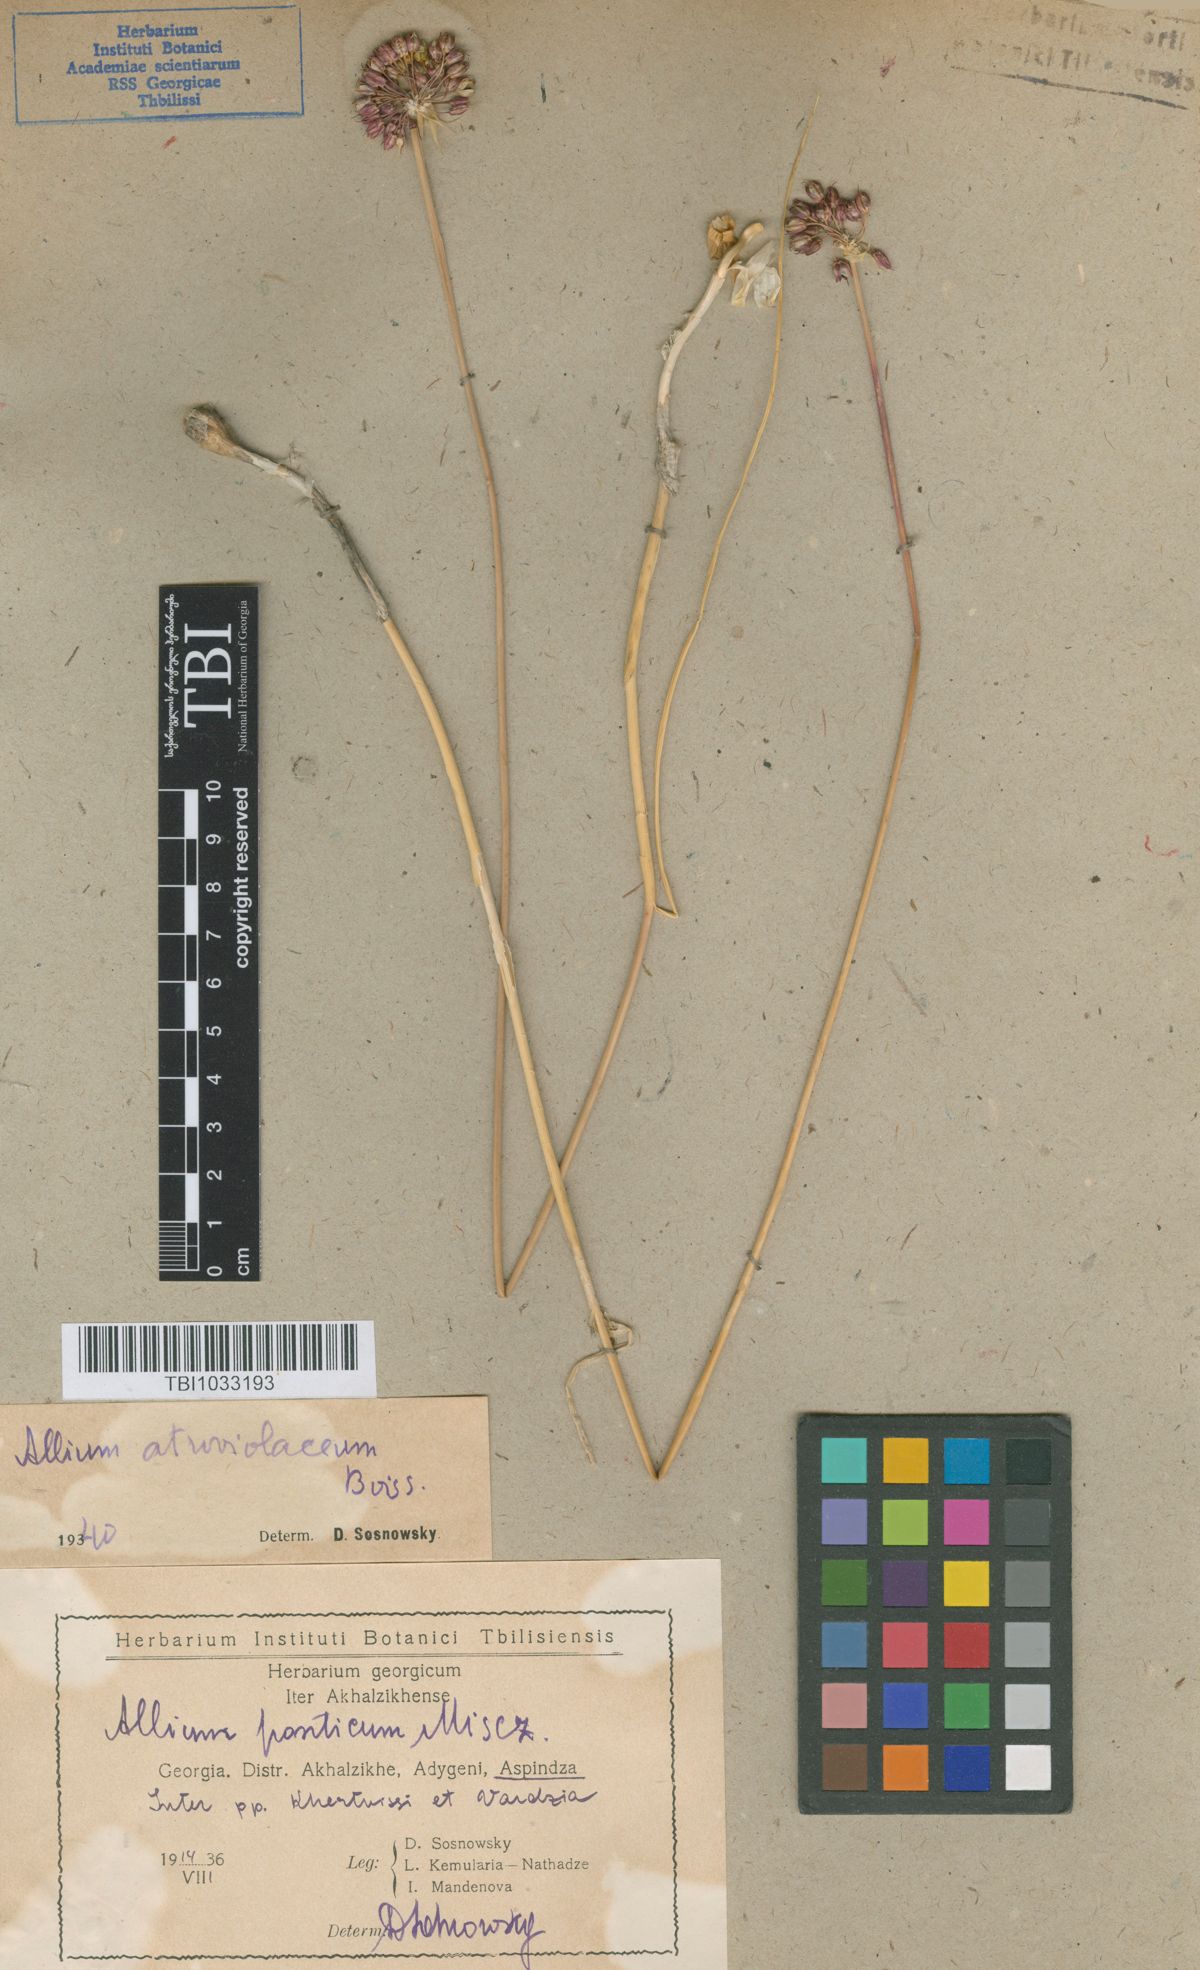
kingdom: Plantae
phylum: Tracheophyta
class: Liliopsida
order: Asparagales
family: Amaryllidaceae
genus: Allium
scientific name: Allium atroviolaceum
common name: Broadleaf wild leek
